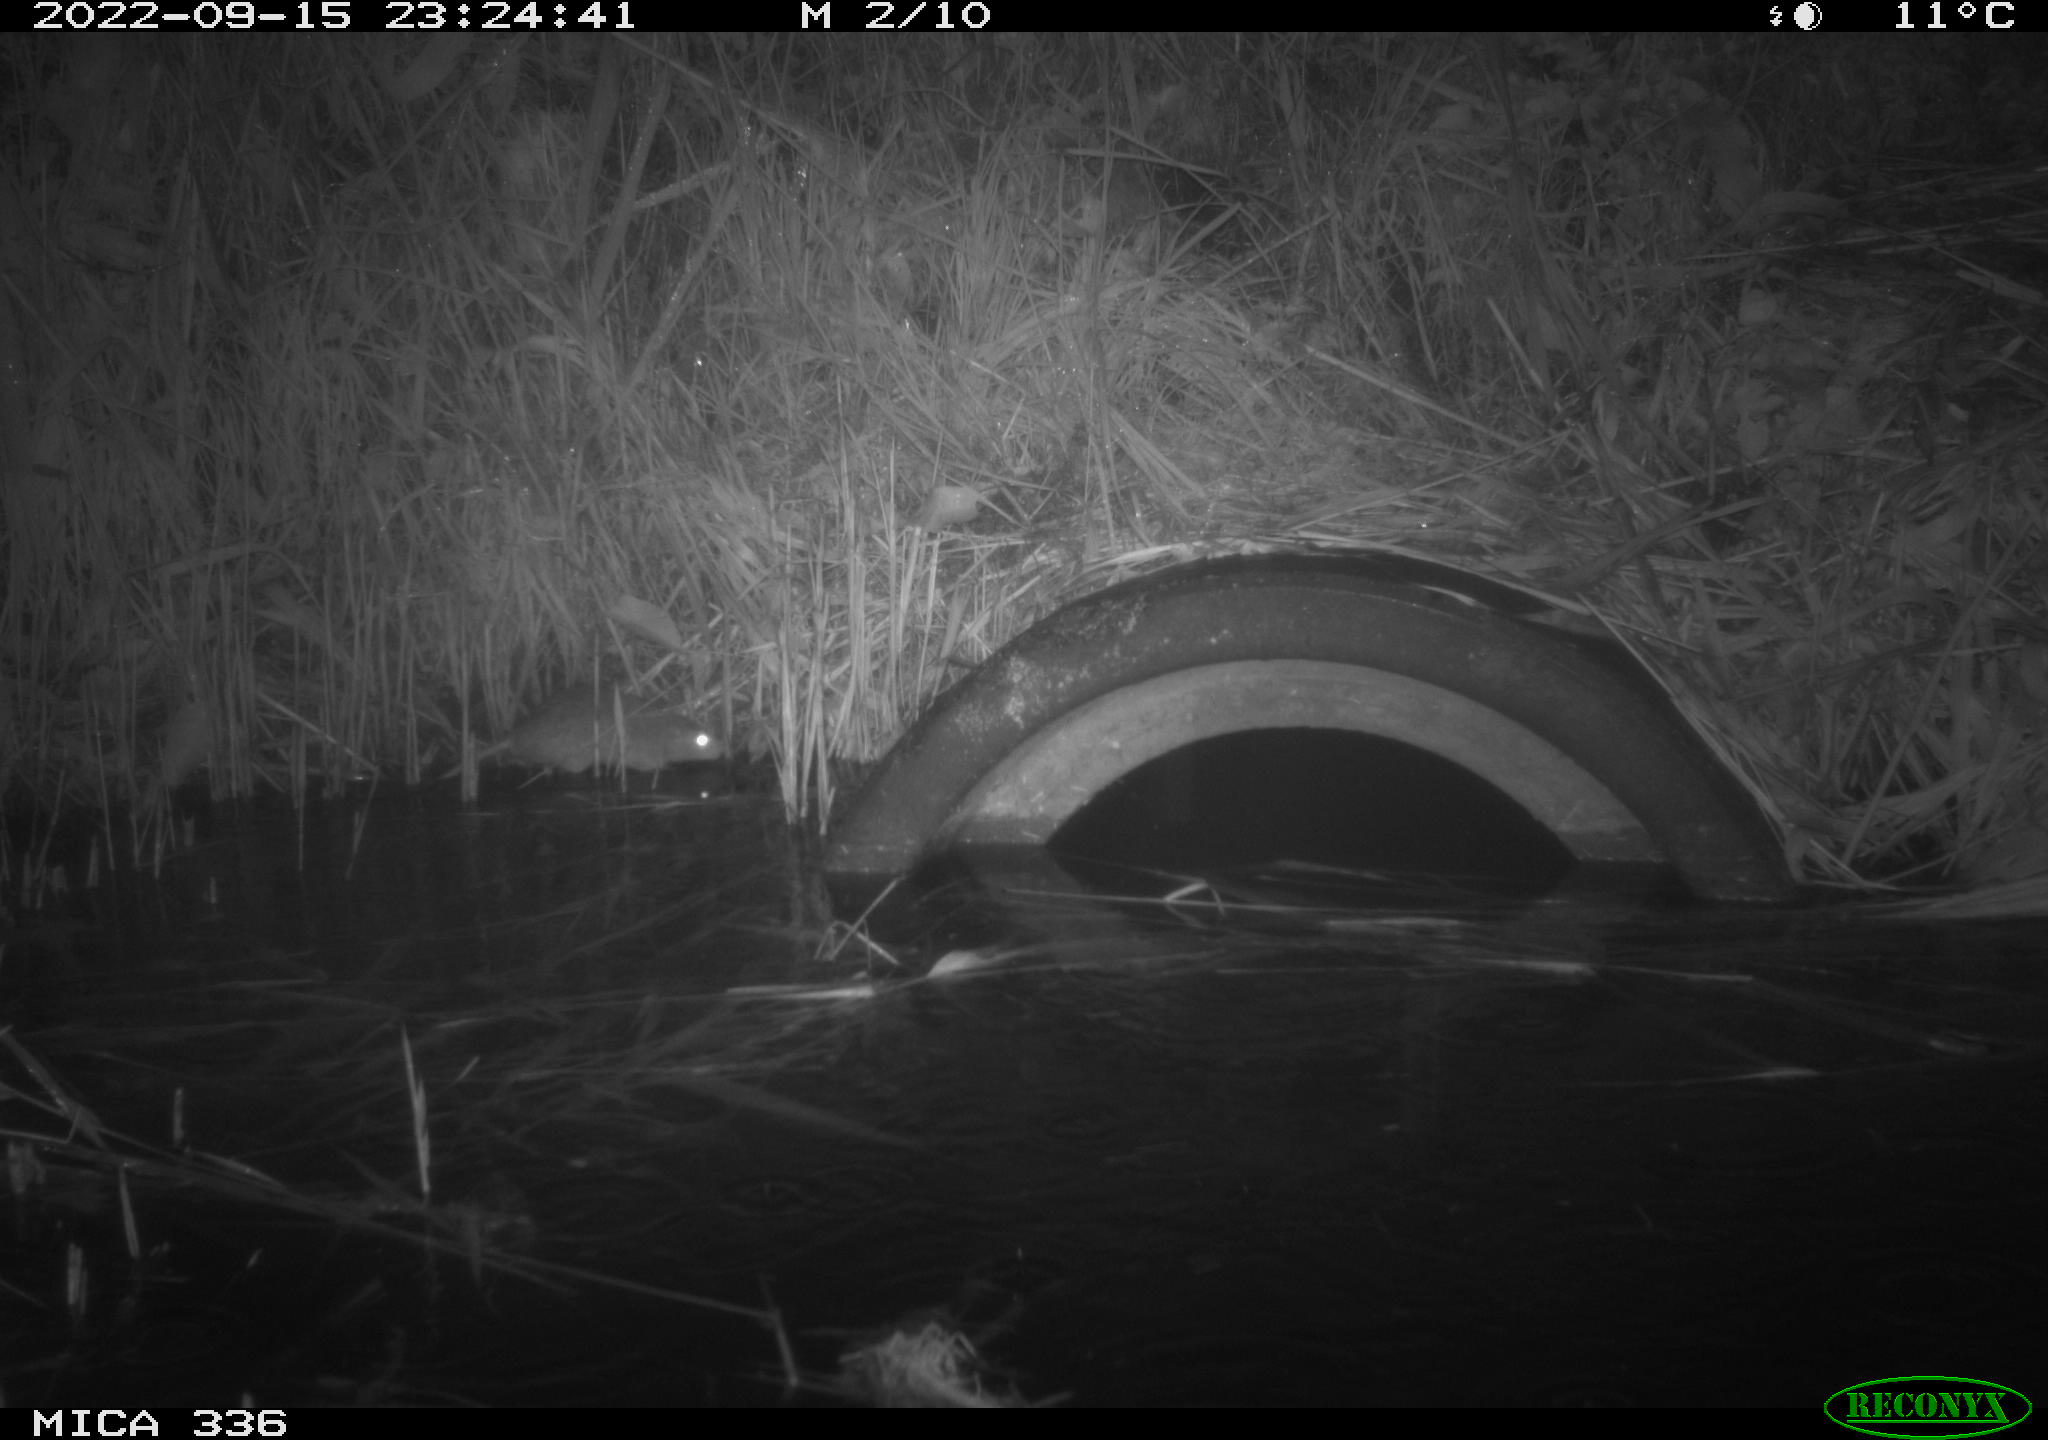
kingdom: Animalia
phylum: Chordata
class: Mammalia
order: Rodentia
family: Muridae
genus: Rattus
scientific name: Rattus norvegicus
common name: Brown rat
